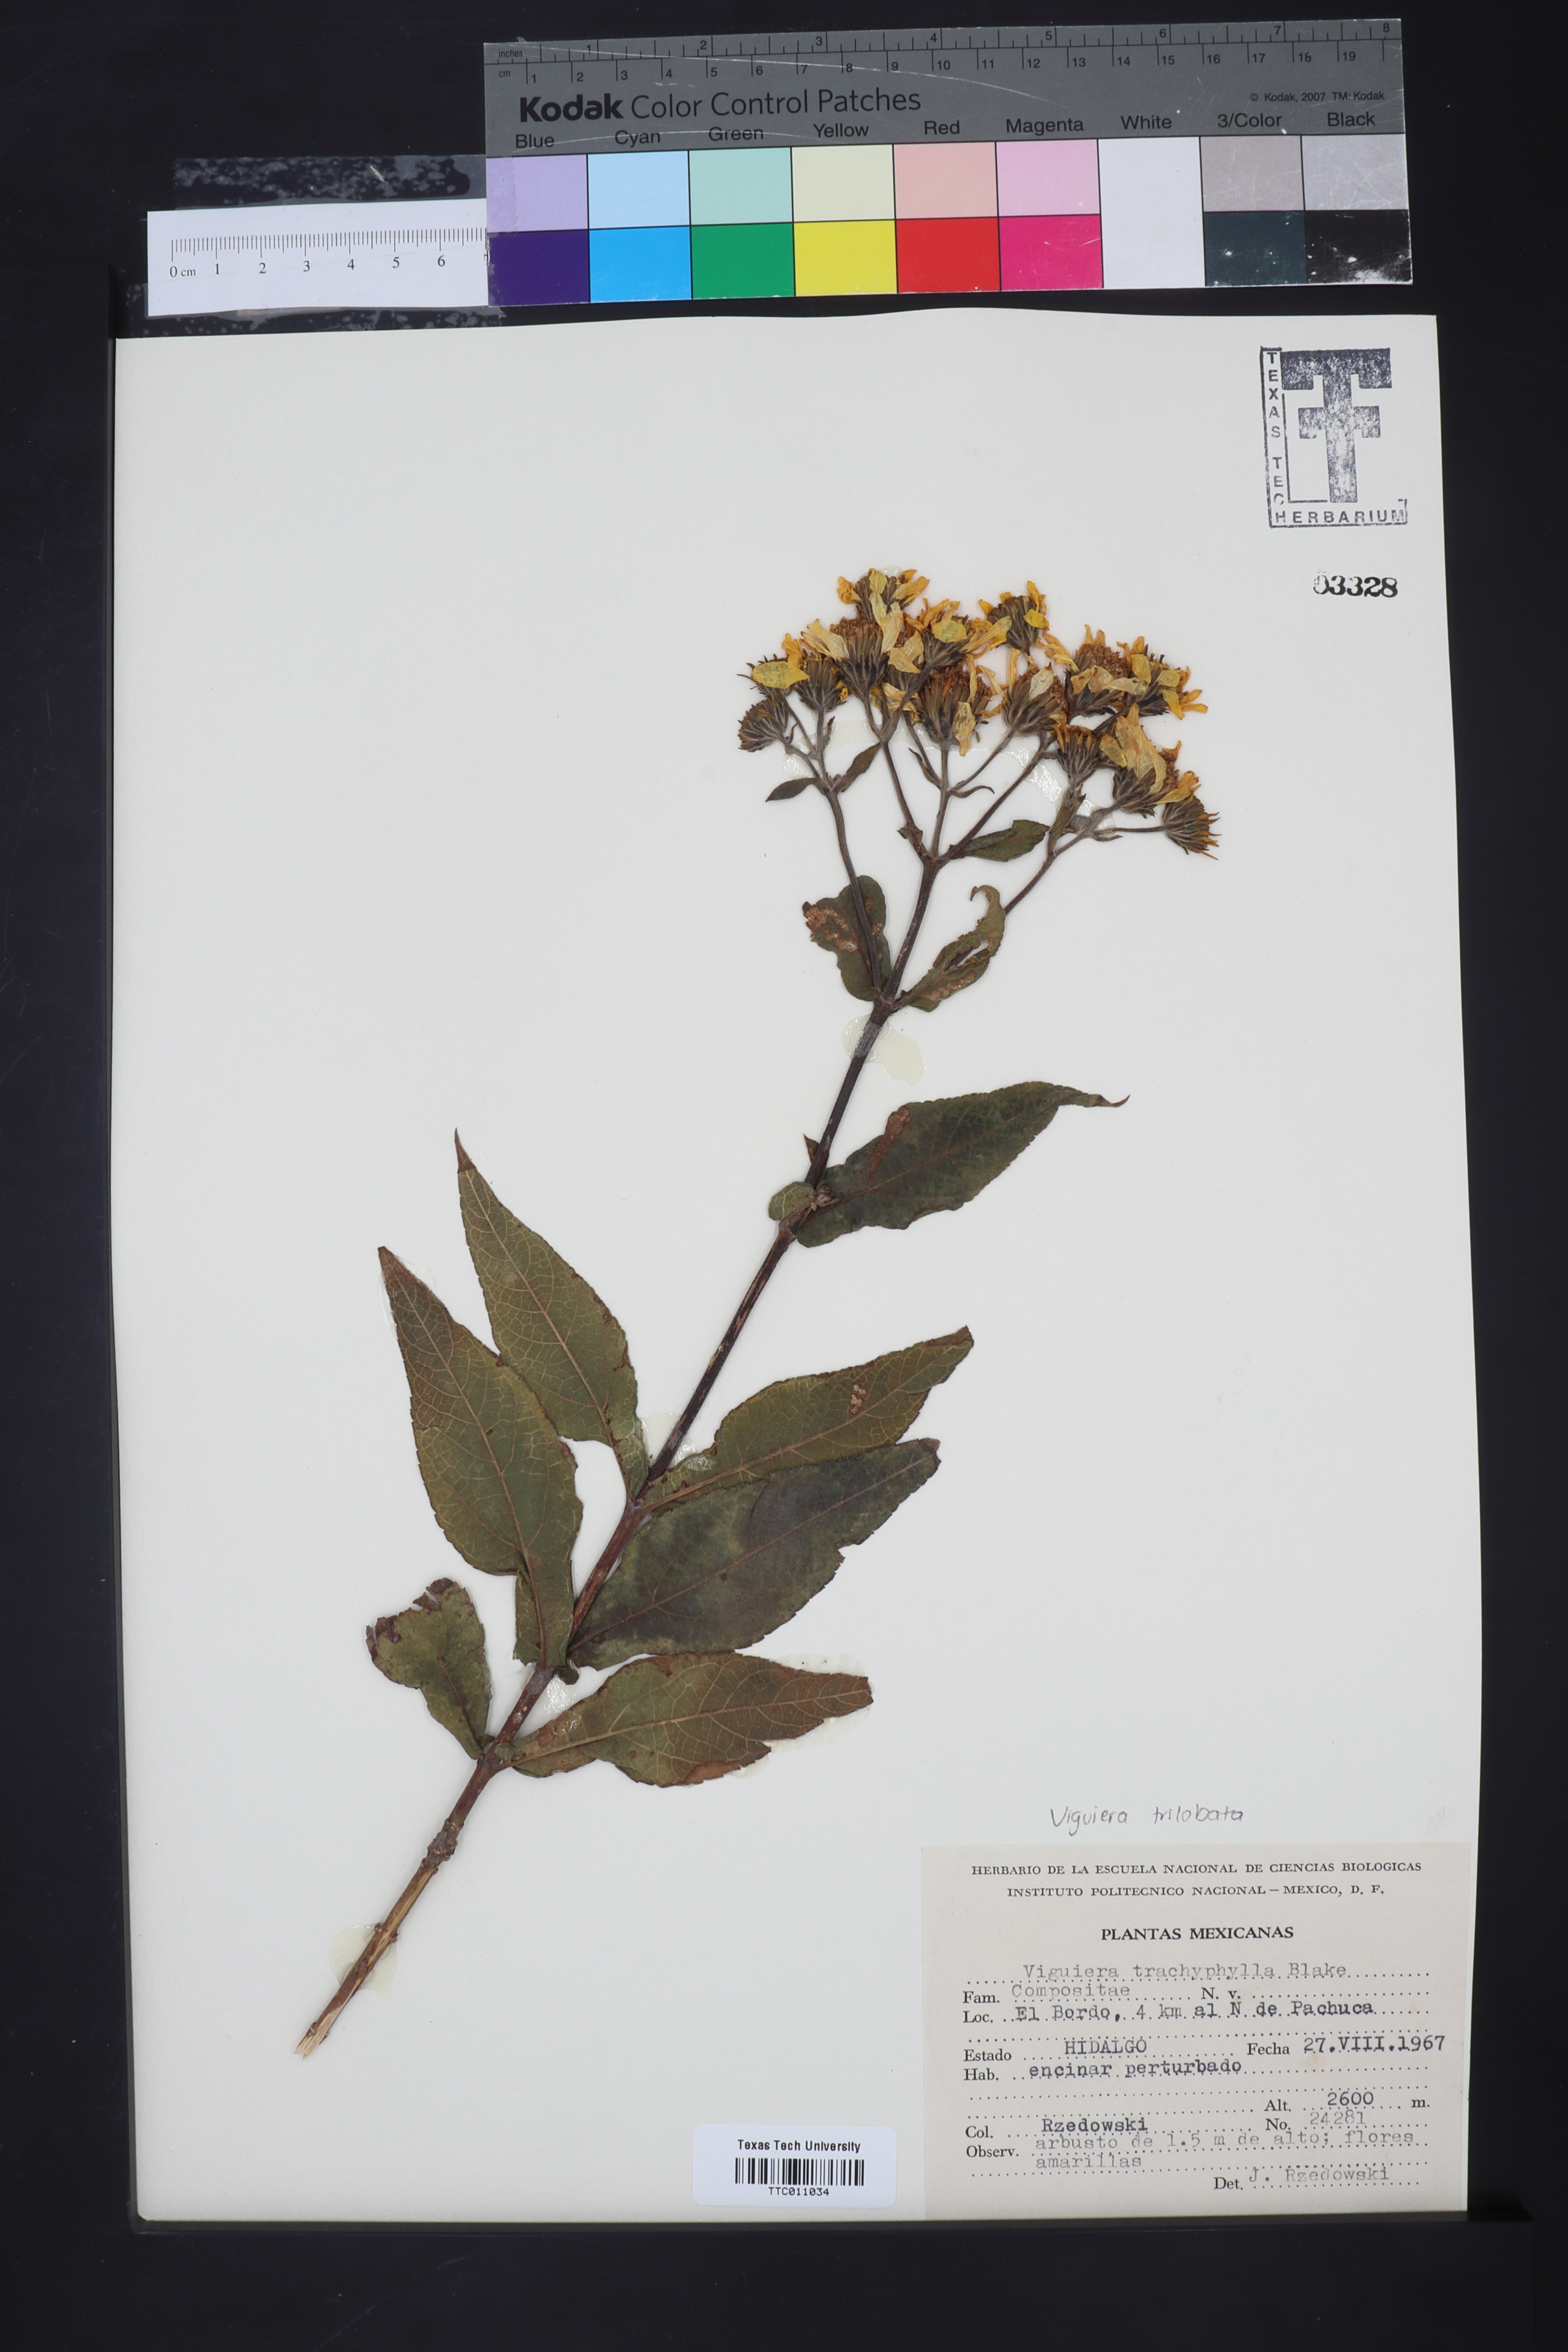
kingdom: Plantae
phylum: Tracheophyta
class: Magnoliopsida
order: Asterales
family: Asteraceae
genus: Dendroviguiera
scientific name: Dendroviguiera pringlei
